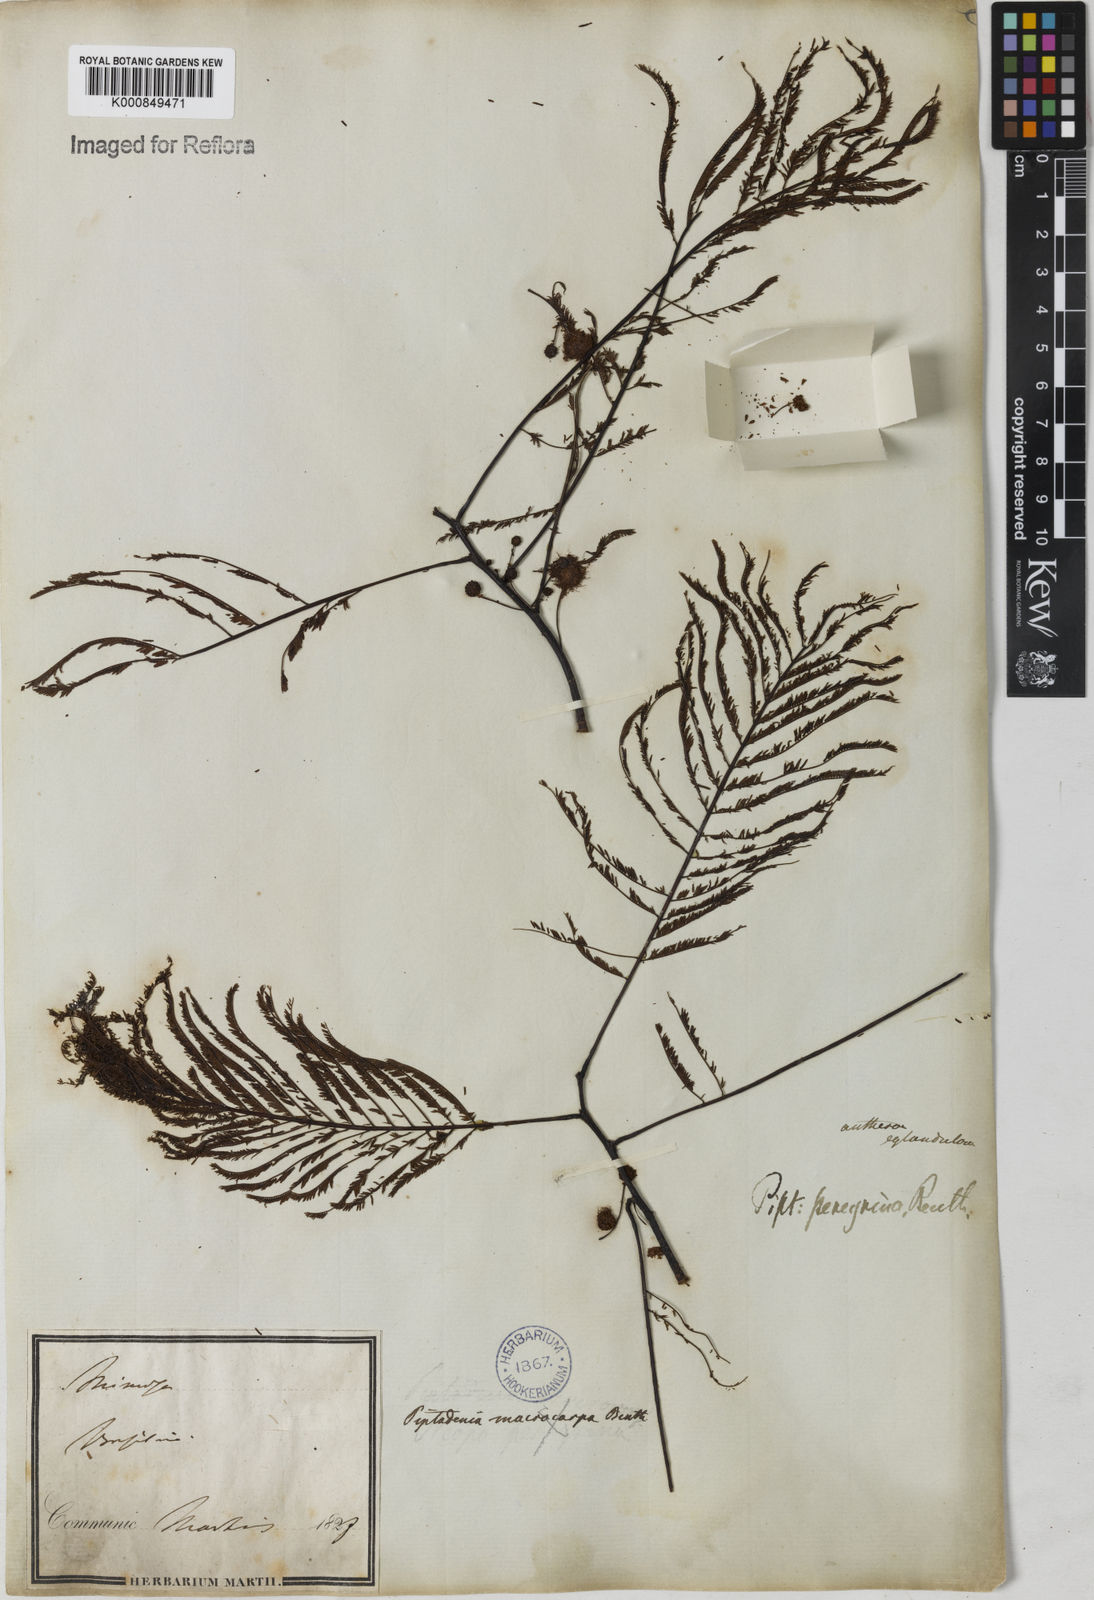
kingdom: Plantae
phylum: Tracheophyta
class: Magnoliopsida
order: Fabales
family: Fabaceae
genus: Anadenanthera
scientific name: Anadenanthera peregrina
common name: Cohoba
